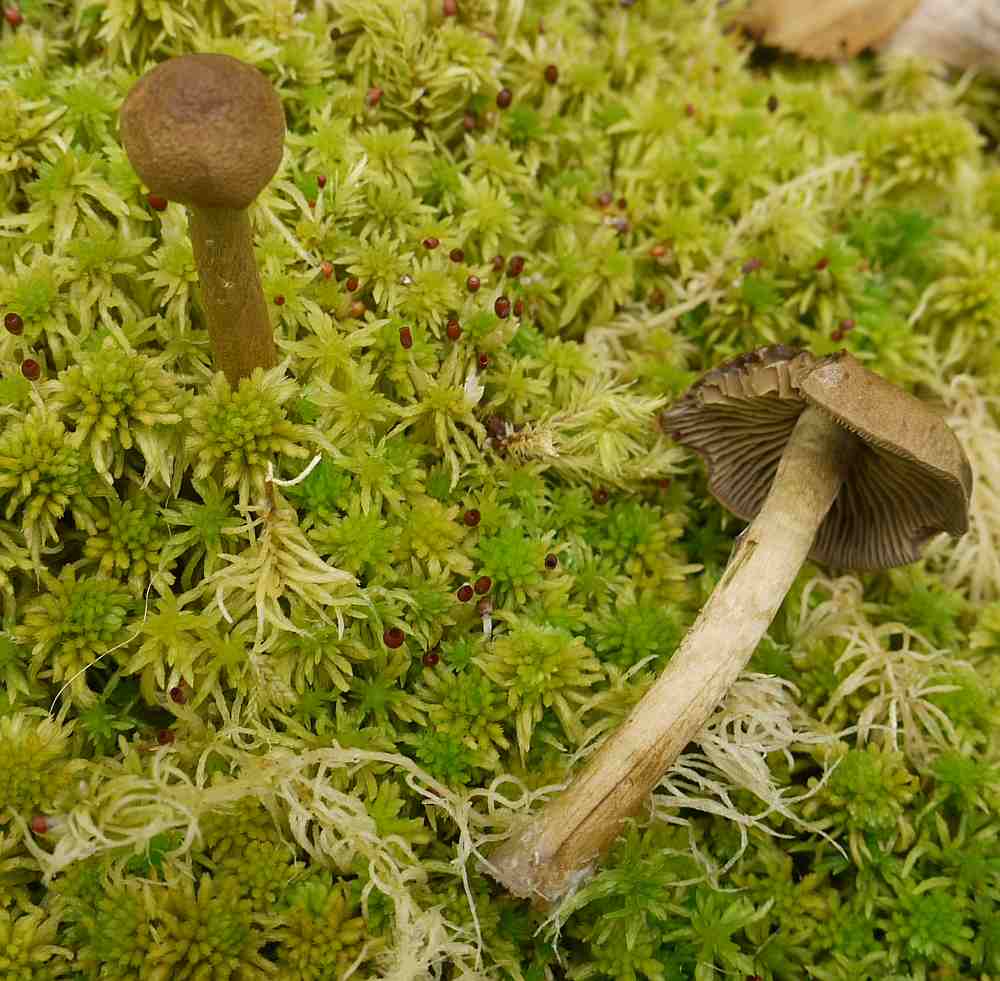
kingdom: Fungi
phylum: Basidiomycota
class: Agaricomycetes
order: Agaricales
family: Cortinariaceae
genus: Cortinarius
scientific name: Cortinarius chrysolitus
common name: tørve-slørhat
